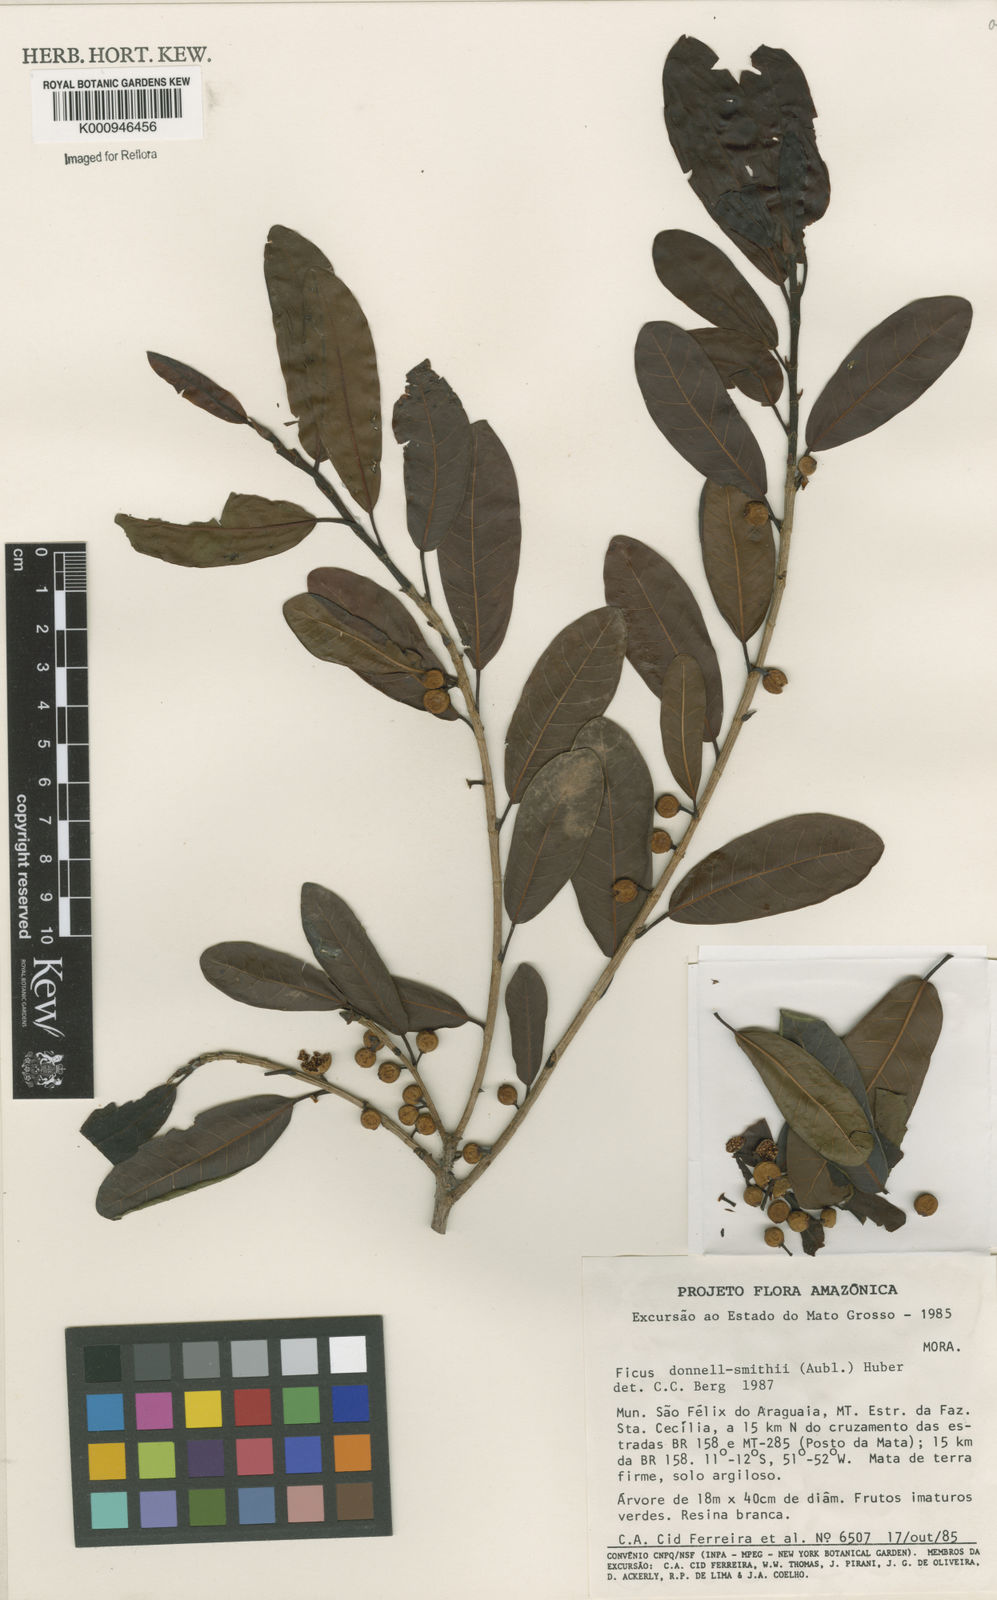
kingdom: Plantae
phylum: Tracheophyta
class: Magnoliopsida
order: Rosales
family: Moraceae
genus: Ficus
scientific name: Ficus donnell-smithii
